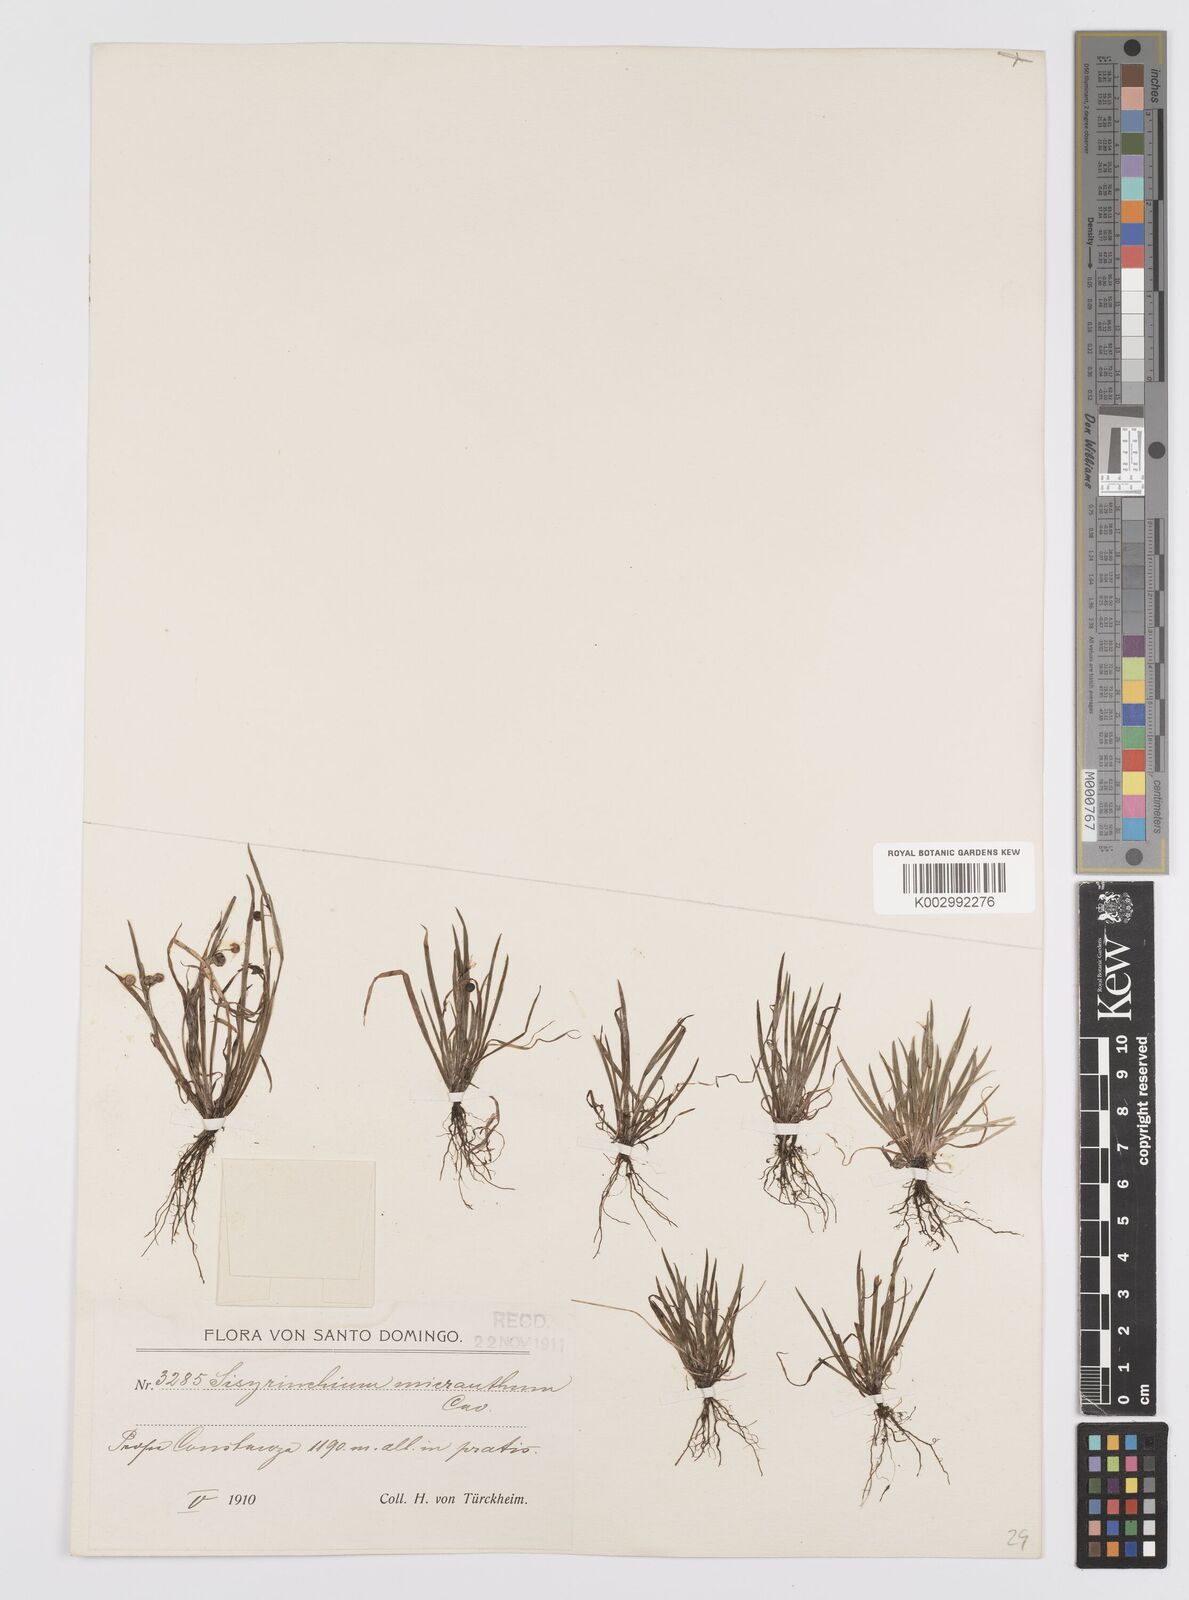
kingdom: Plantae
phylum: Tracheophyta
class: Liliopsida
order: Asparagales
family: Iridaceae
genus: Sisyrinchium
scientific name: Sisyrinchium micranthum
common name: Bermuda pigroot
